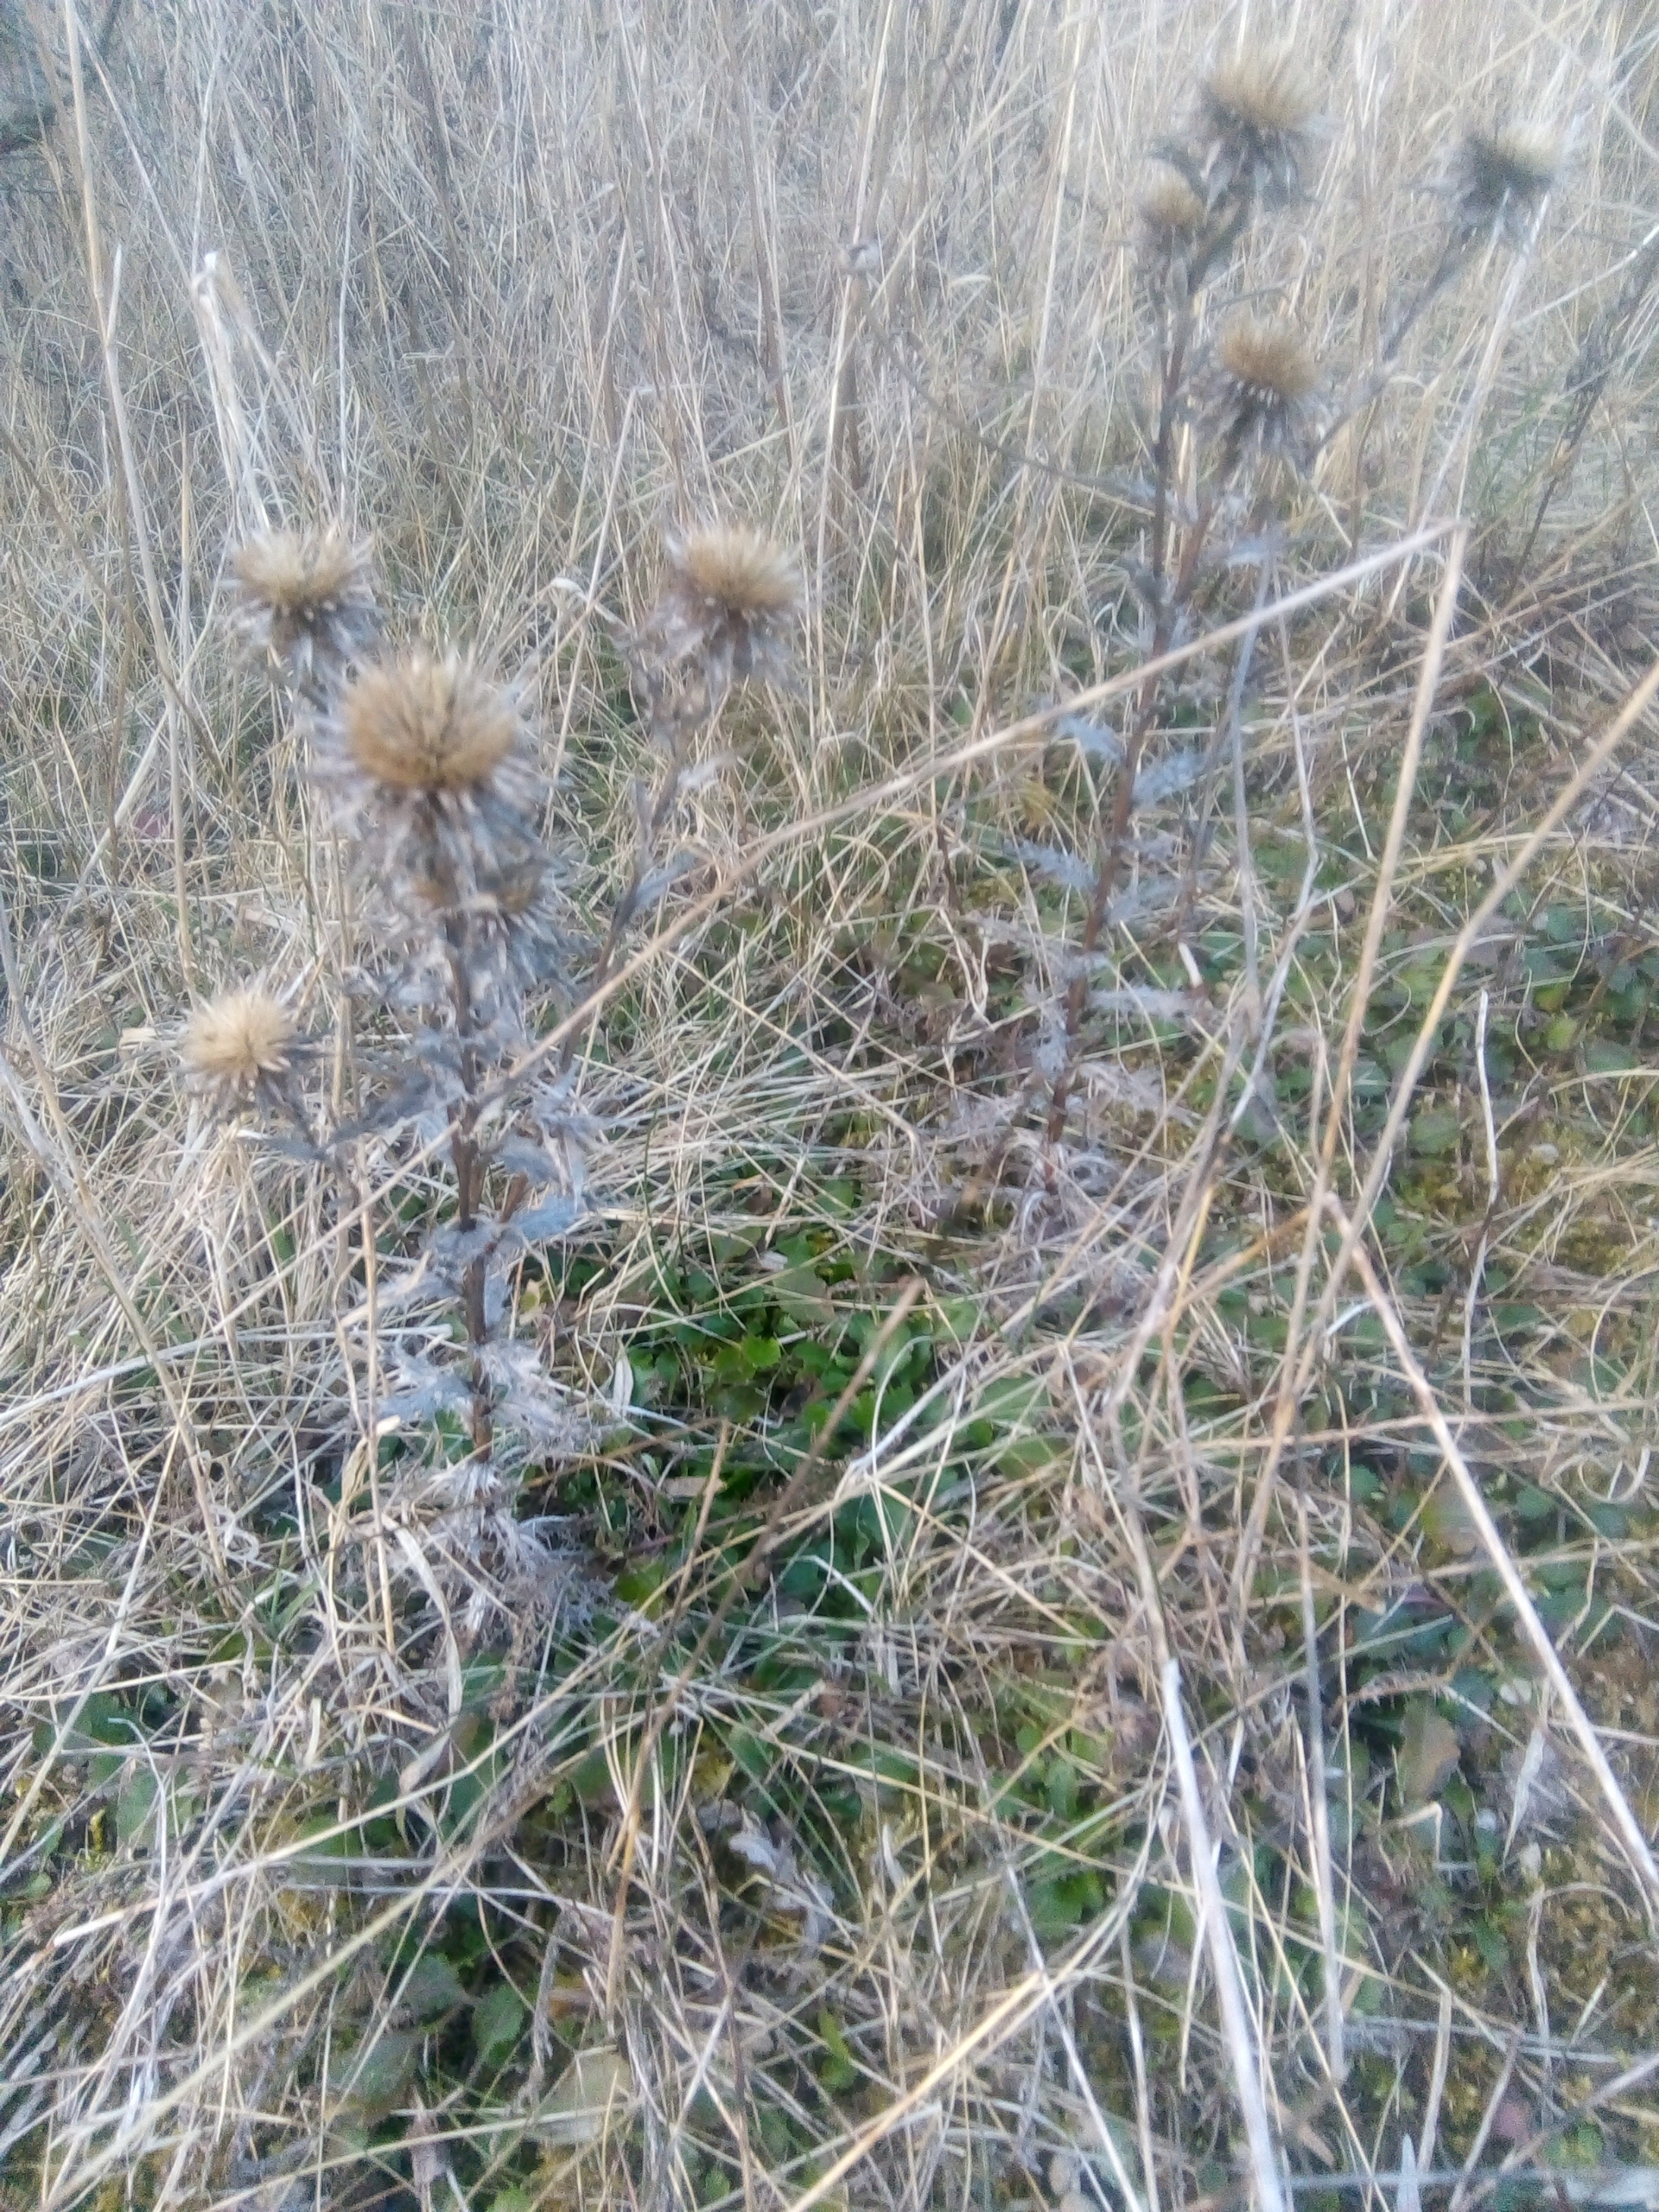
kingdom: Plantae
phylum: Tracheophyta
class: Magnoliopsida
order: Asterales
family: Asteraceae
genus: Carlina
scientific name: Carlina vulgaris
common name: Bakketidsel
